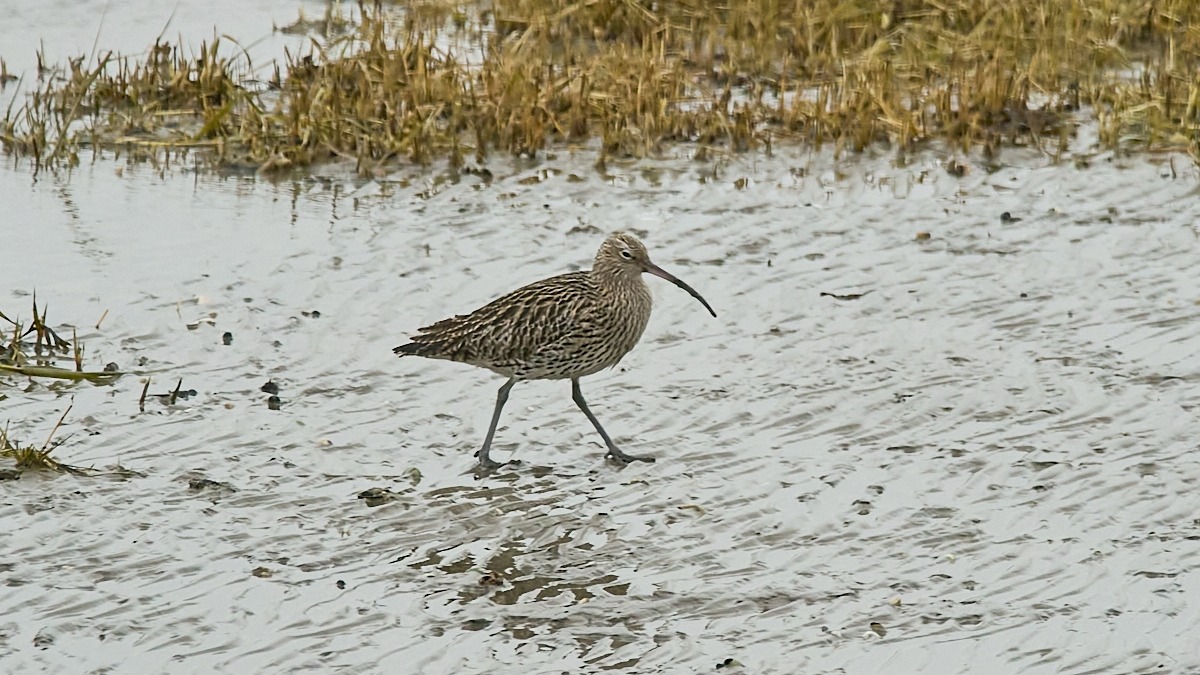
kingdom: Animalia
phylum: Chordata
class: Aves
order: Charadriiformes
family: Scolopacidae
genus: Numenius
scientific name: Numenius arquata
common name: Storspove
